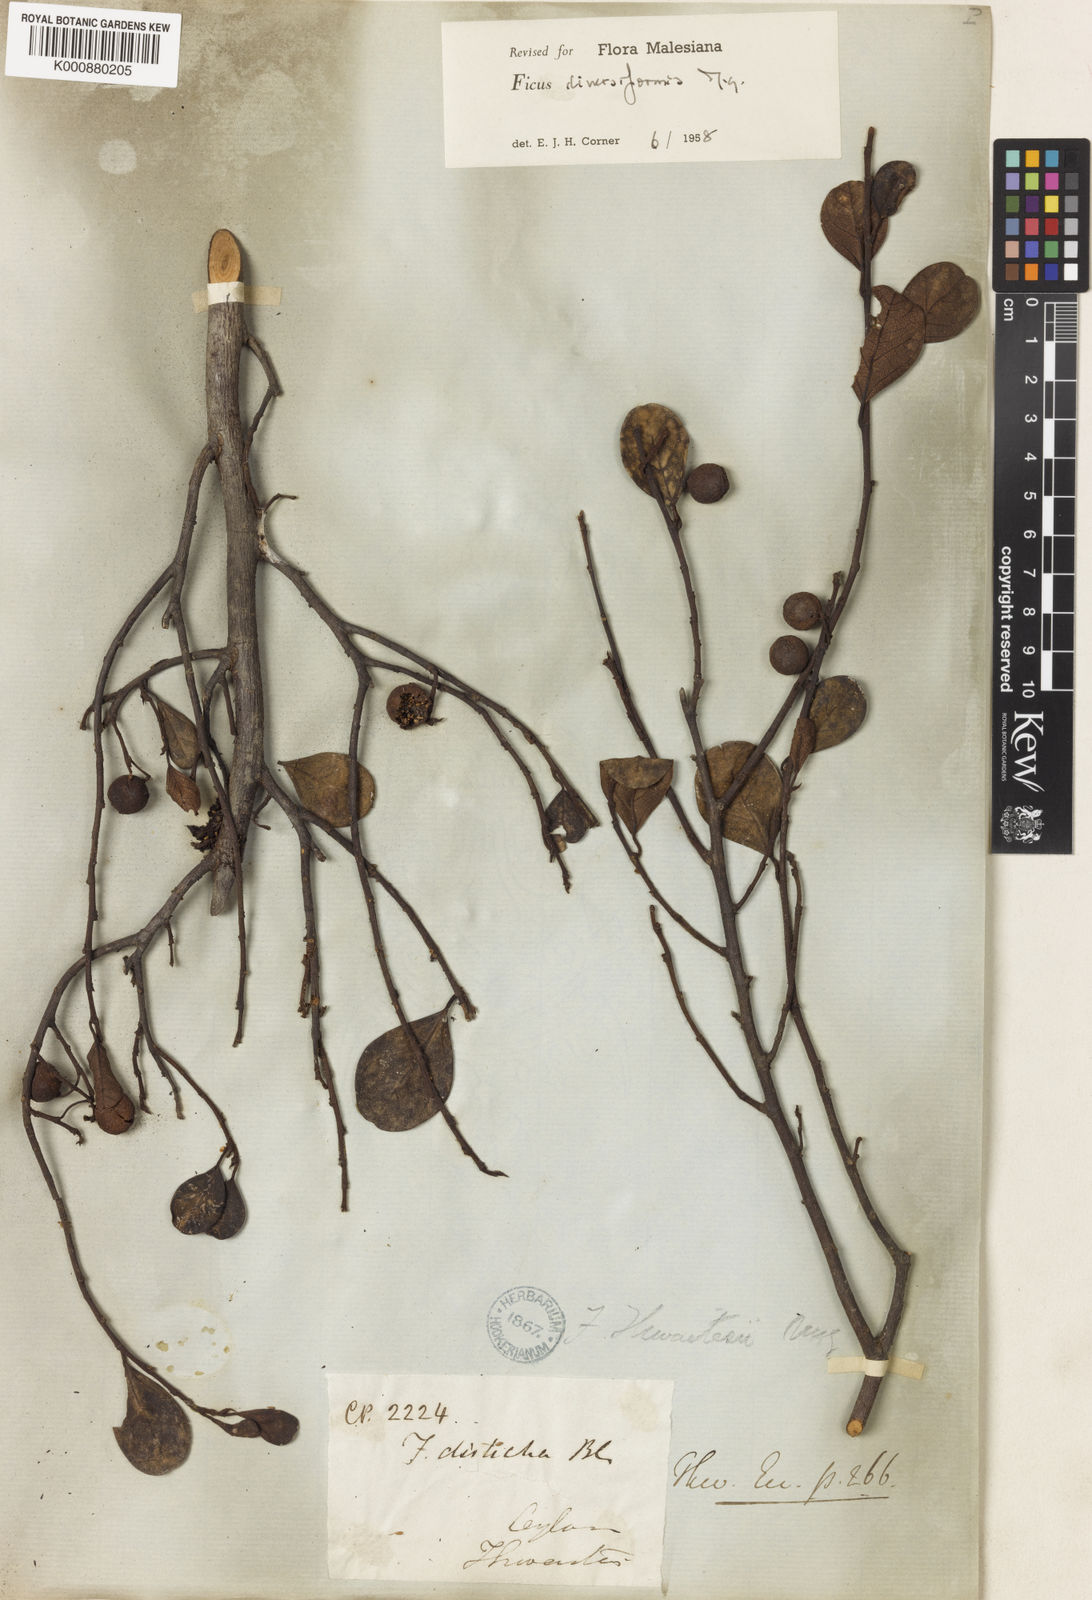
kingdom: Plantae
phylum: Tracheophyta
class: Magnoliopsida
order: Rosales
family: Moraceae
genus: Ficus
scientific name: Ficus diversiformis
